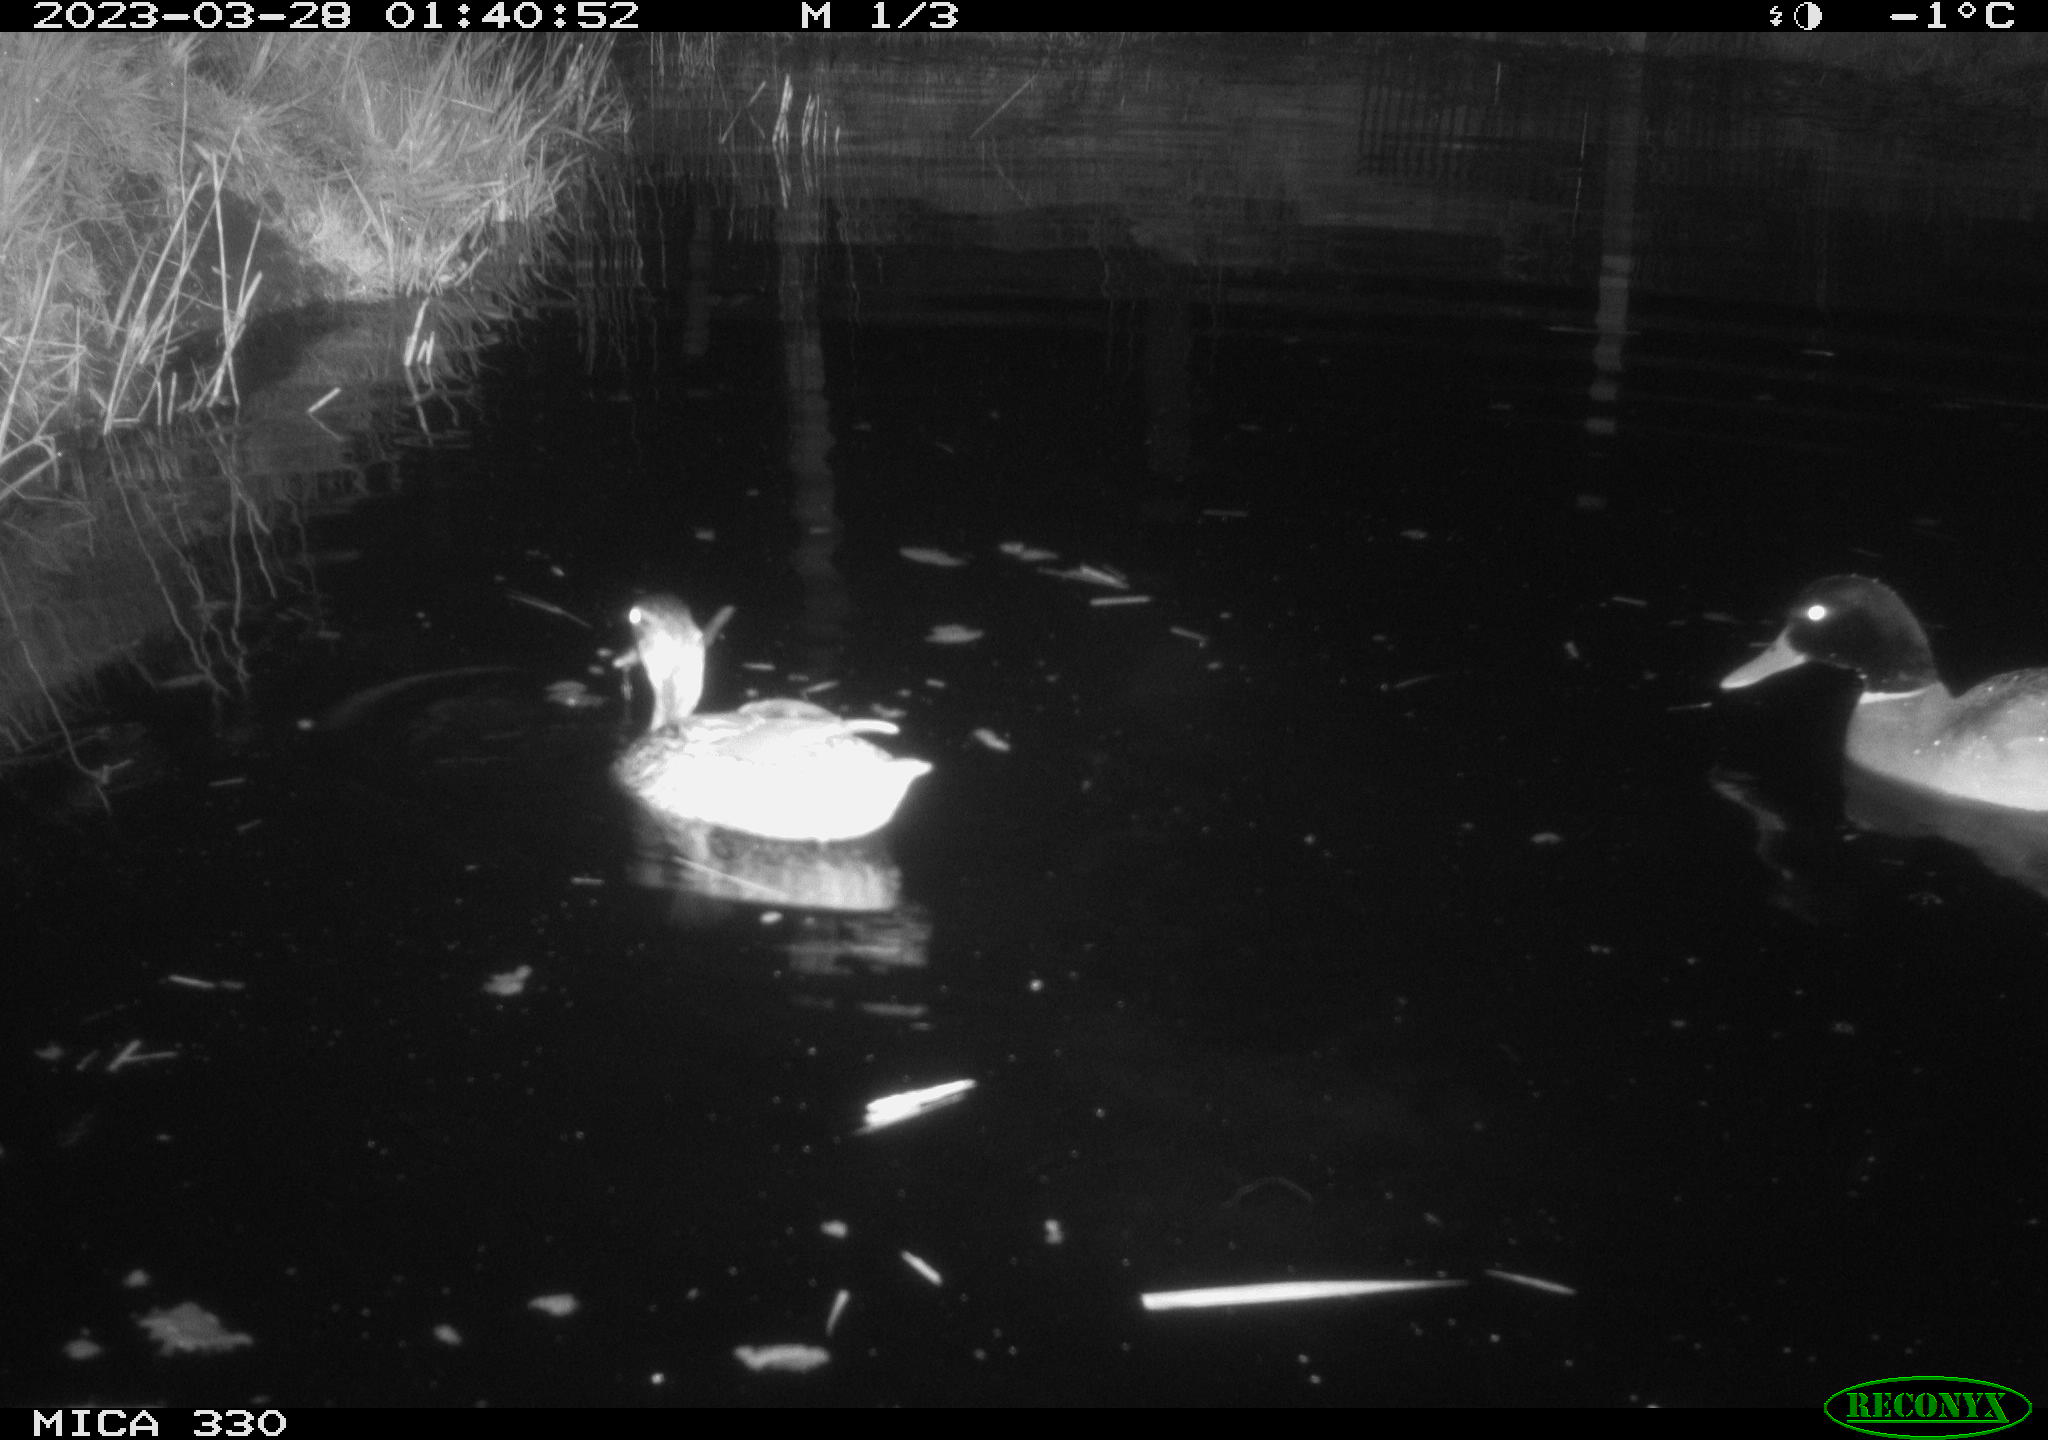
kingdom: Animalia
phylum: Chordata
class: Aves
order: Anseriformes
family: Anatidae
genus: Anas
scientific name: Anas
